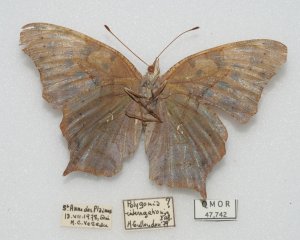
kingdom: Animalia
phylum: Arthropoda
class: Insecta
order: Lepidoptera
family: Nymphalidae
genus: Polygonia
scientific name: Polygonia interrogationis
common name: Question Mark
